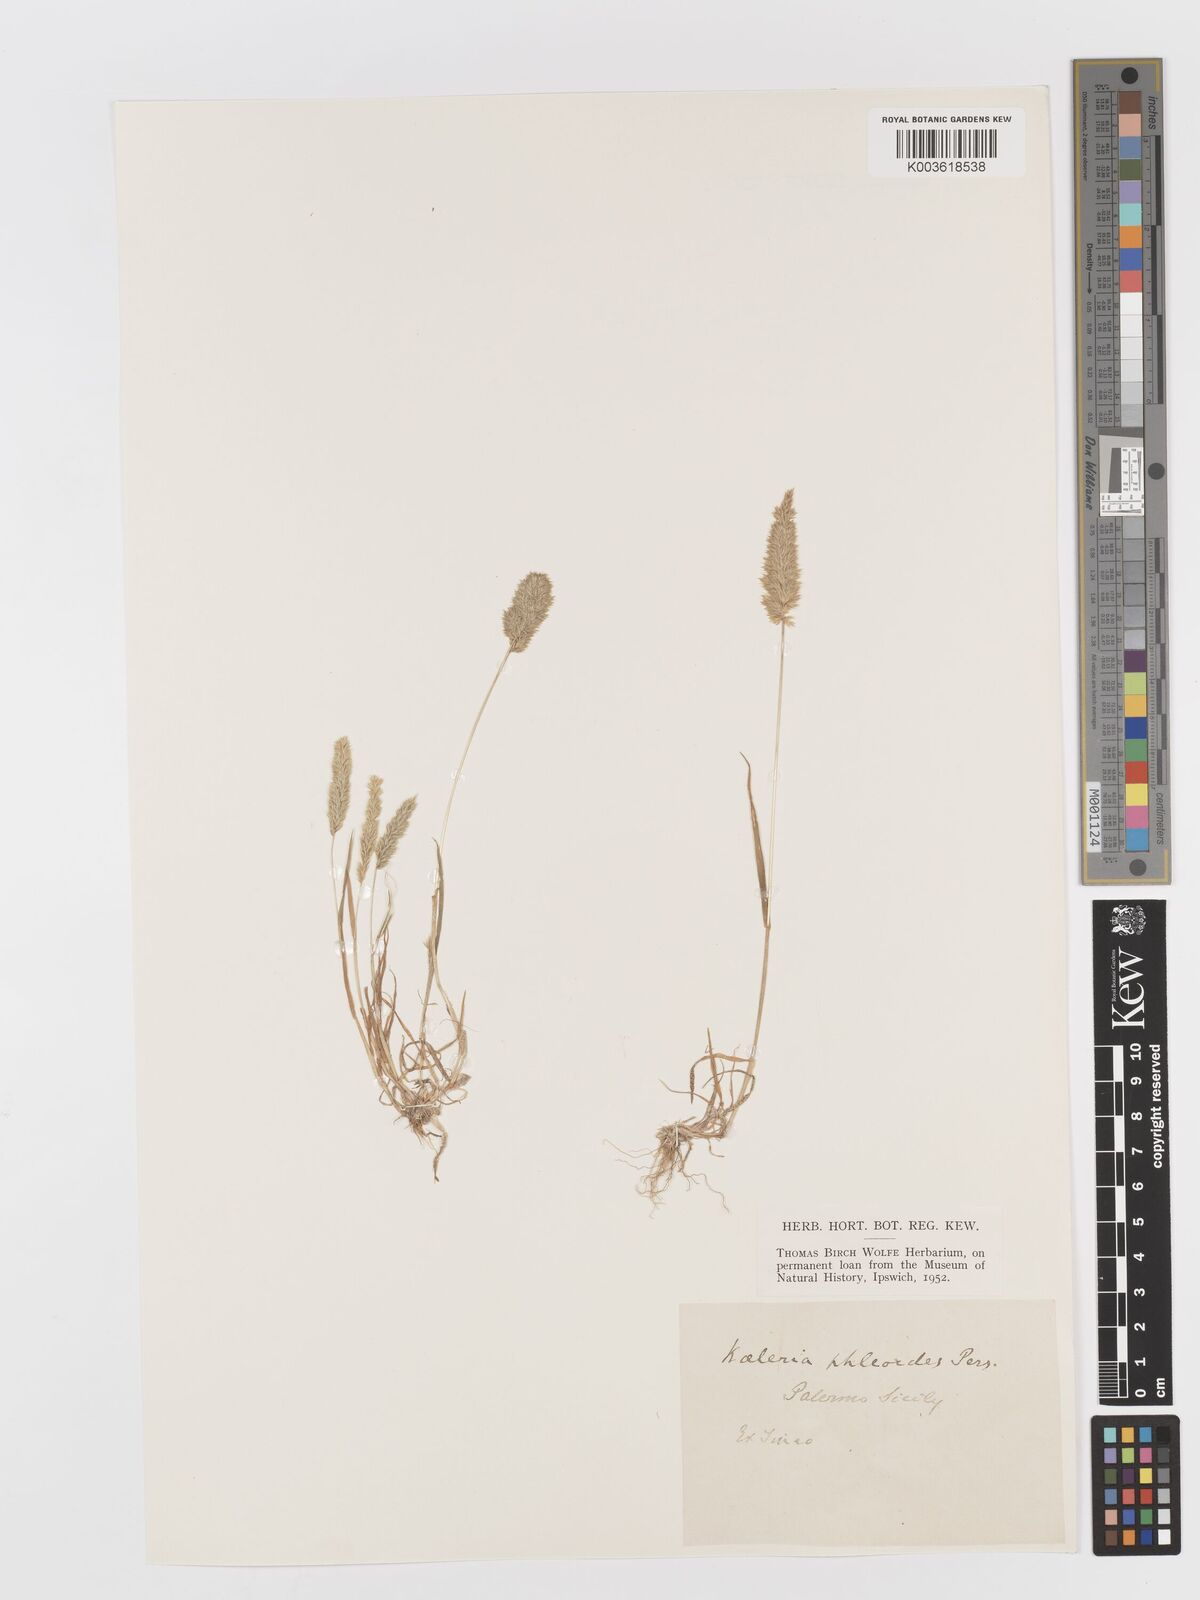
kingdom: Plantae
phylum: Tracheophyta
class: Liliopsida
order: Poales
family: Poaceae
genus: Rostraria
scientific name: Rostraria cristata
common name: Mediterranean hair-grass
